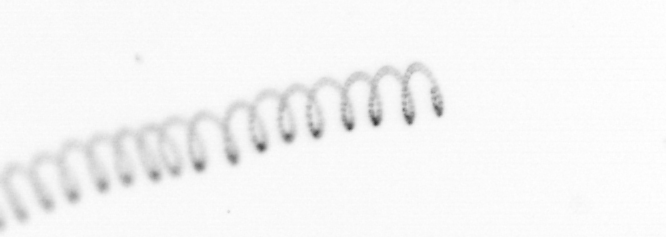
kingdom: Chromista
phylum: Ochrophyta
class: Bacillariophyceae
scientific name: Bacillariophyceae
